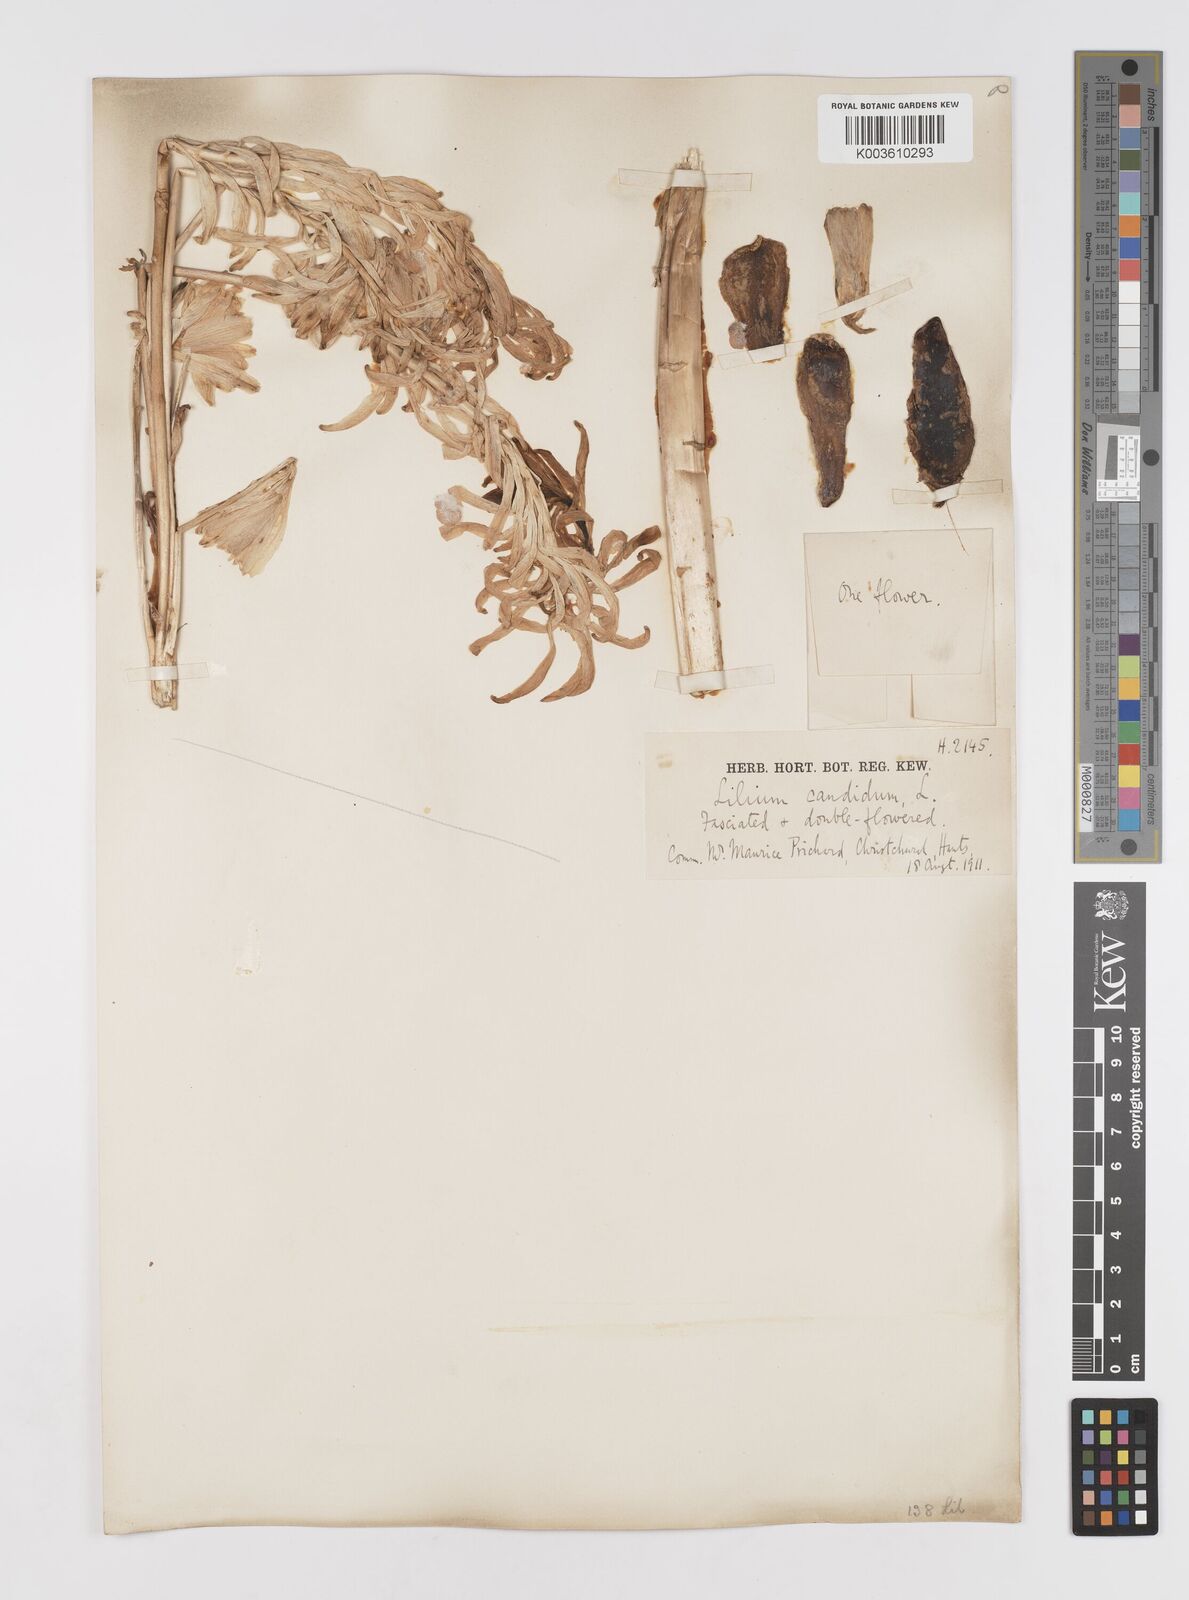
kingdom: Plantae
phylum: Tracheophyta
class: Liliopsida
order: Liliales
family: Liliaceae
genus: Lilium
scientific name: Lilium
